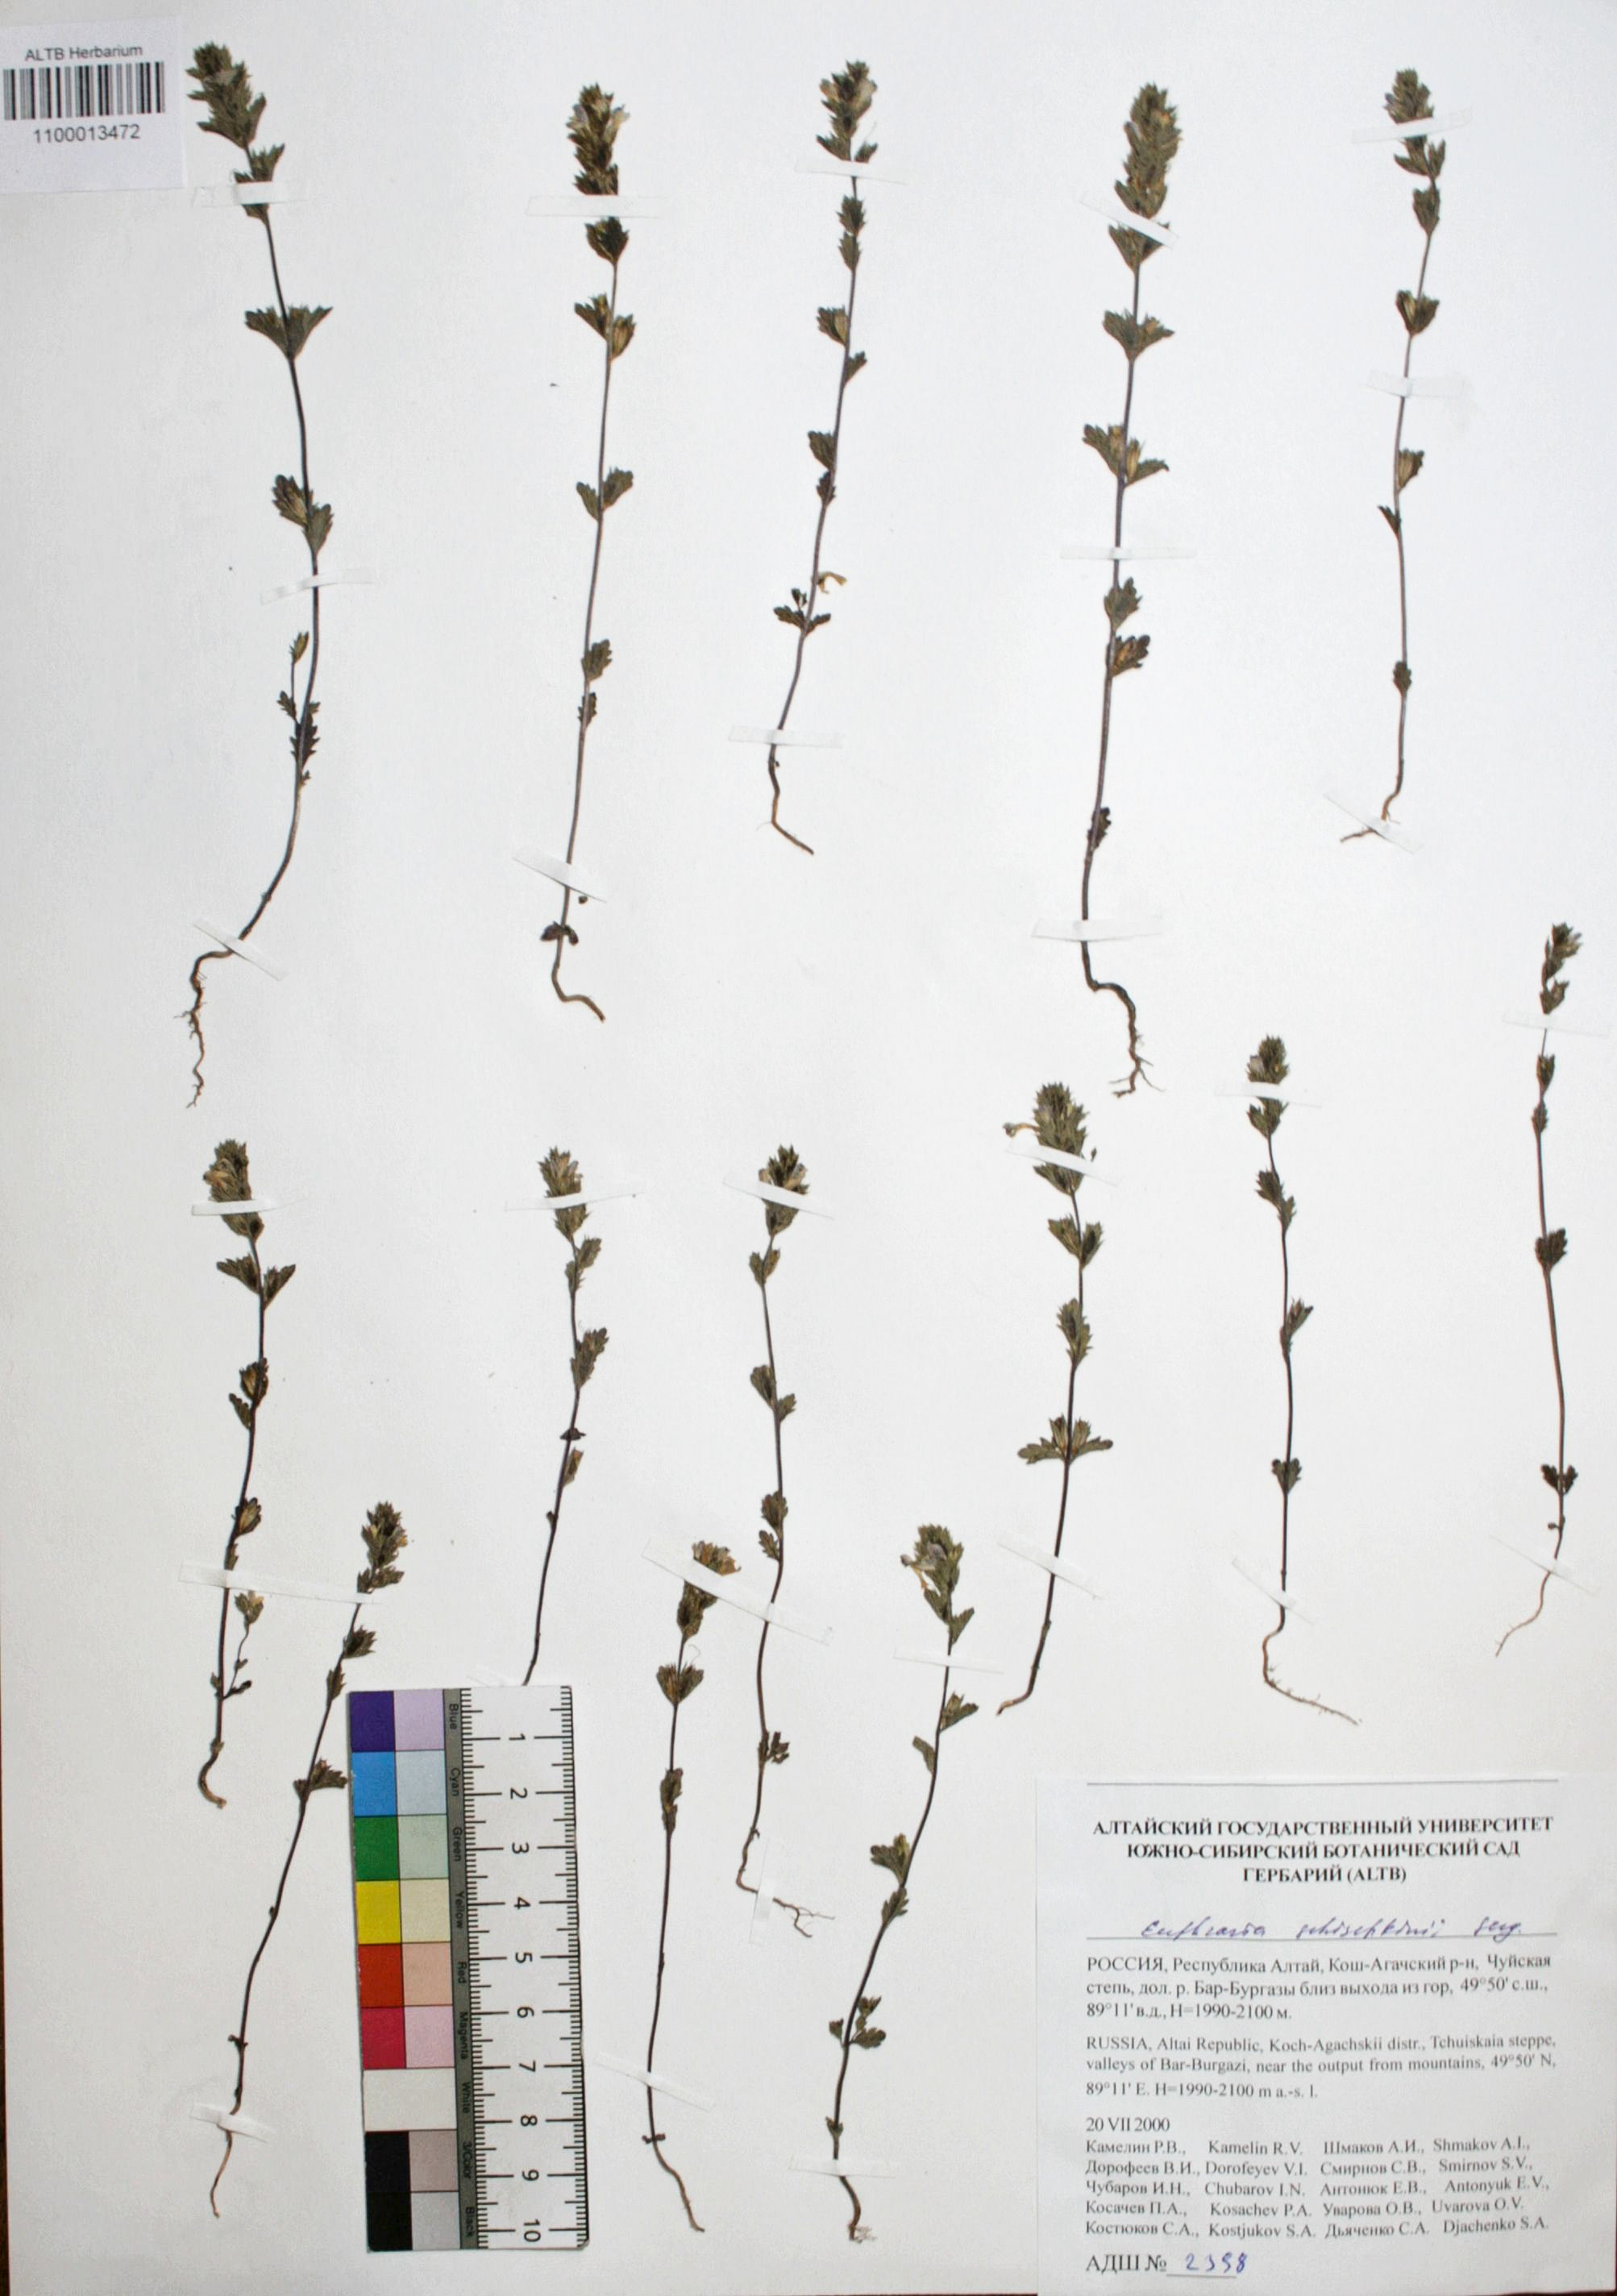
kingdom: Plantae
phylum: Tracheophyta
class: Magnoliopsida
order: Lamiales
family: Orobanchaceae
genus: Euphrasia
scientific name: Euphrasia schischkinii
